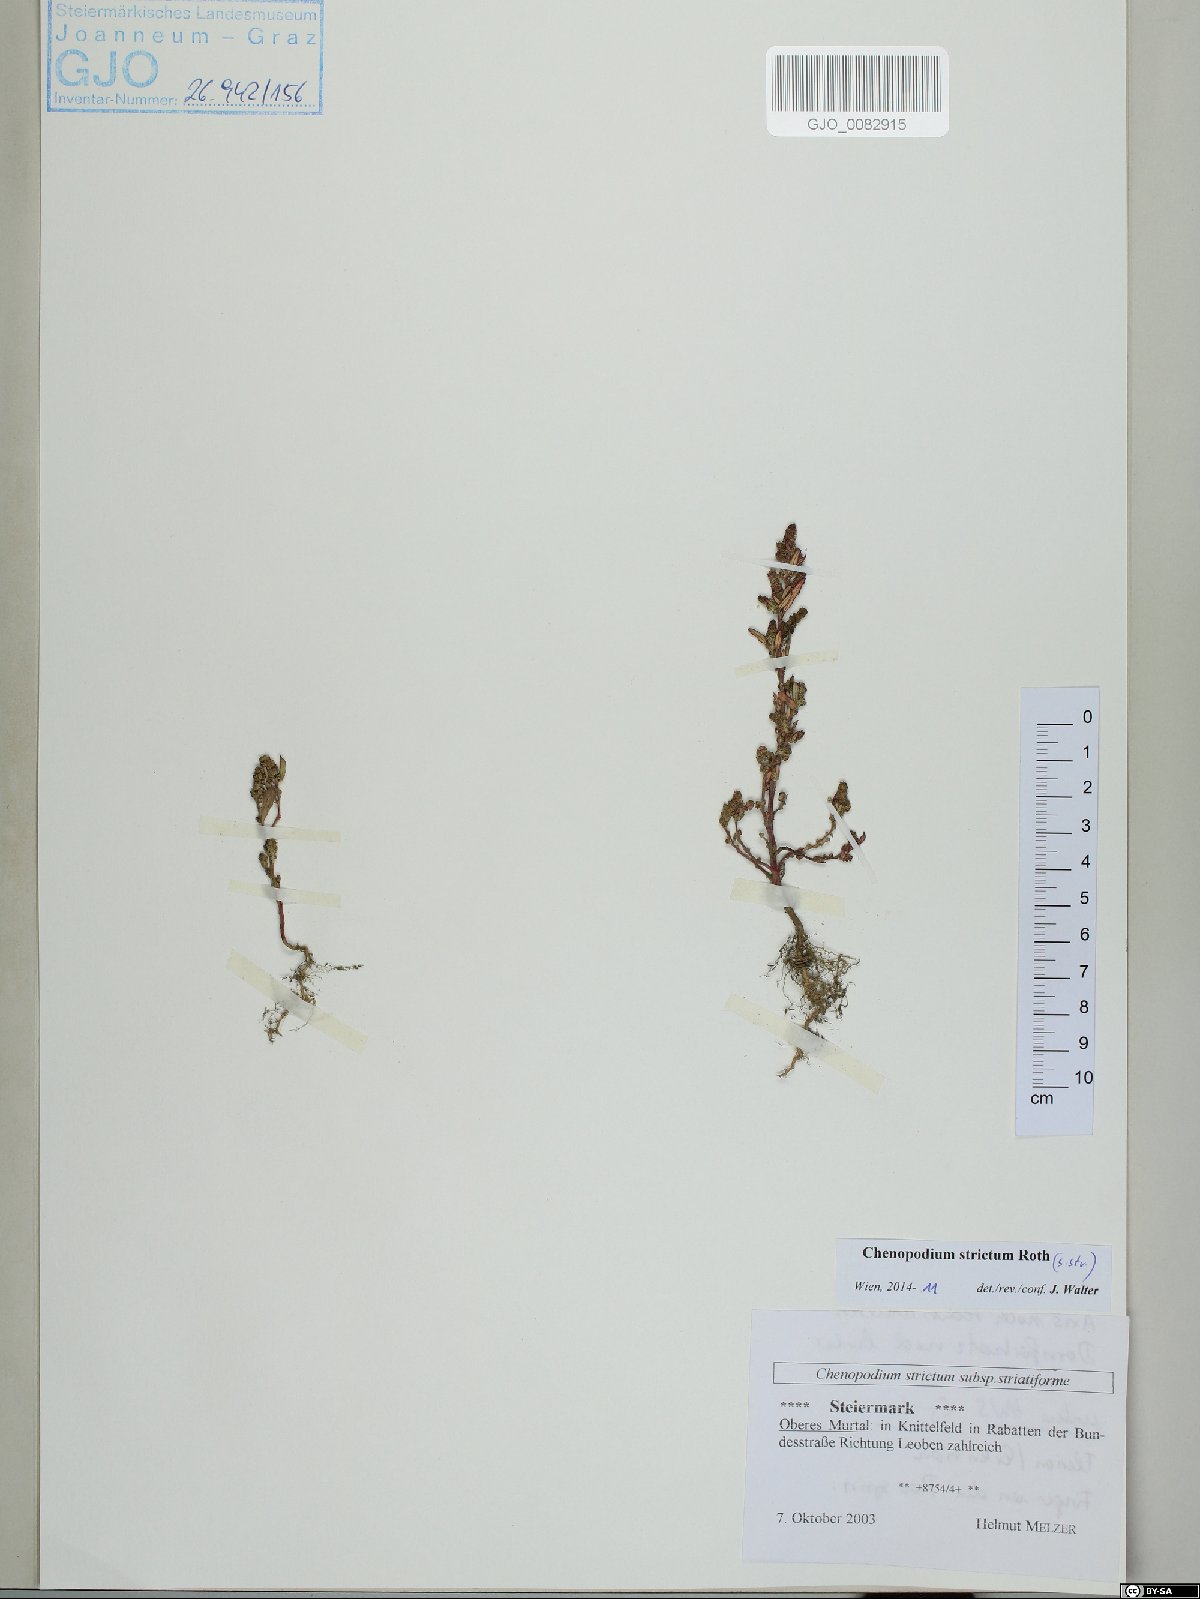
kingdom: Plantae
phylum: Tracheophyta
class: Magnoliopsida
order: Caryophyllales
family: Amaranthaceae
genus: Chenopodium
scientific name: Chenopodium album
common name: Fat-hen
